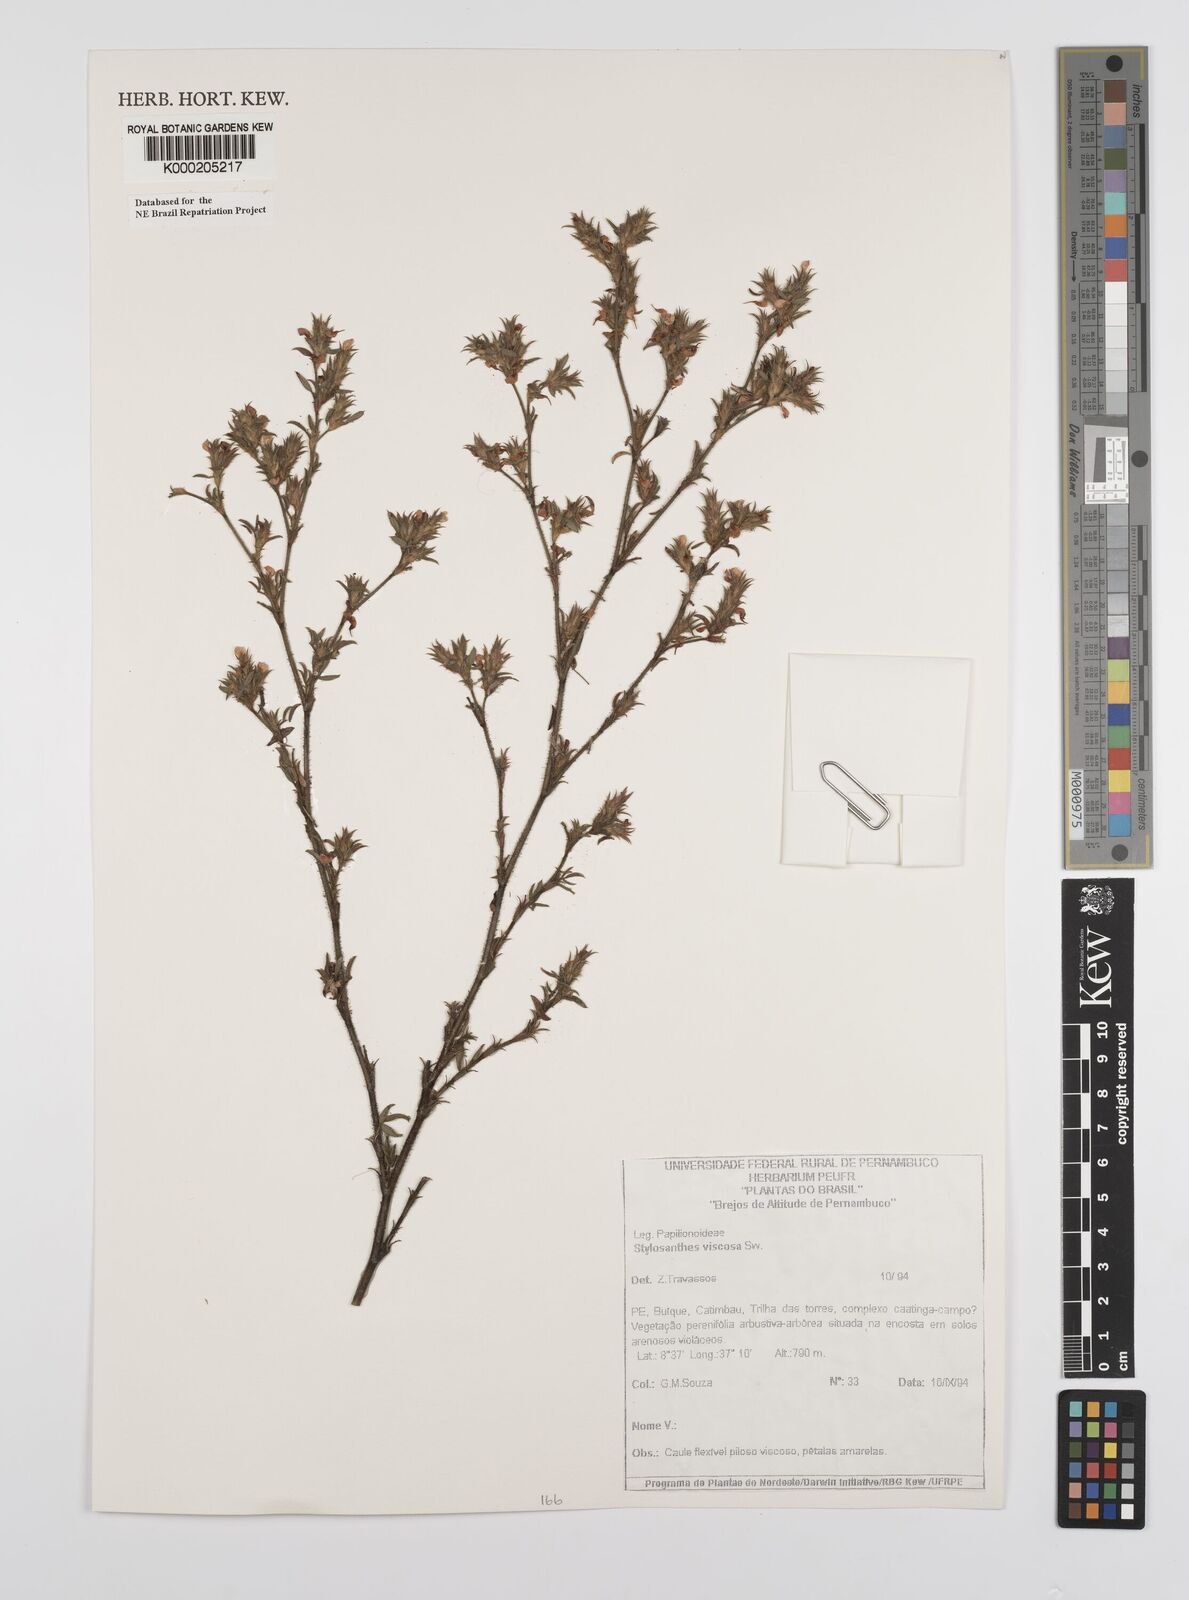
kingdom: Plantae
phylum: Tracheophyta
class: Magnoliopsida
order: Fabales
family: Fabaceae
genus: Stylosanthes
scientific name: Stylosanthes viscosa
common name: Viscid pencil-flower
